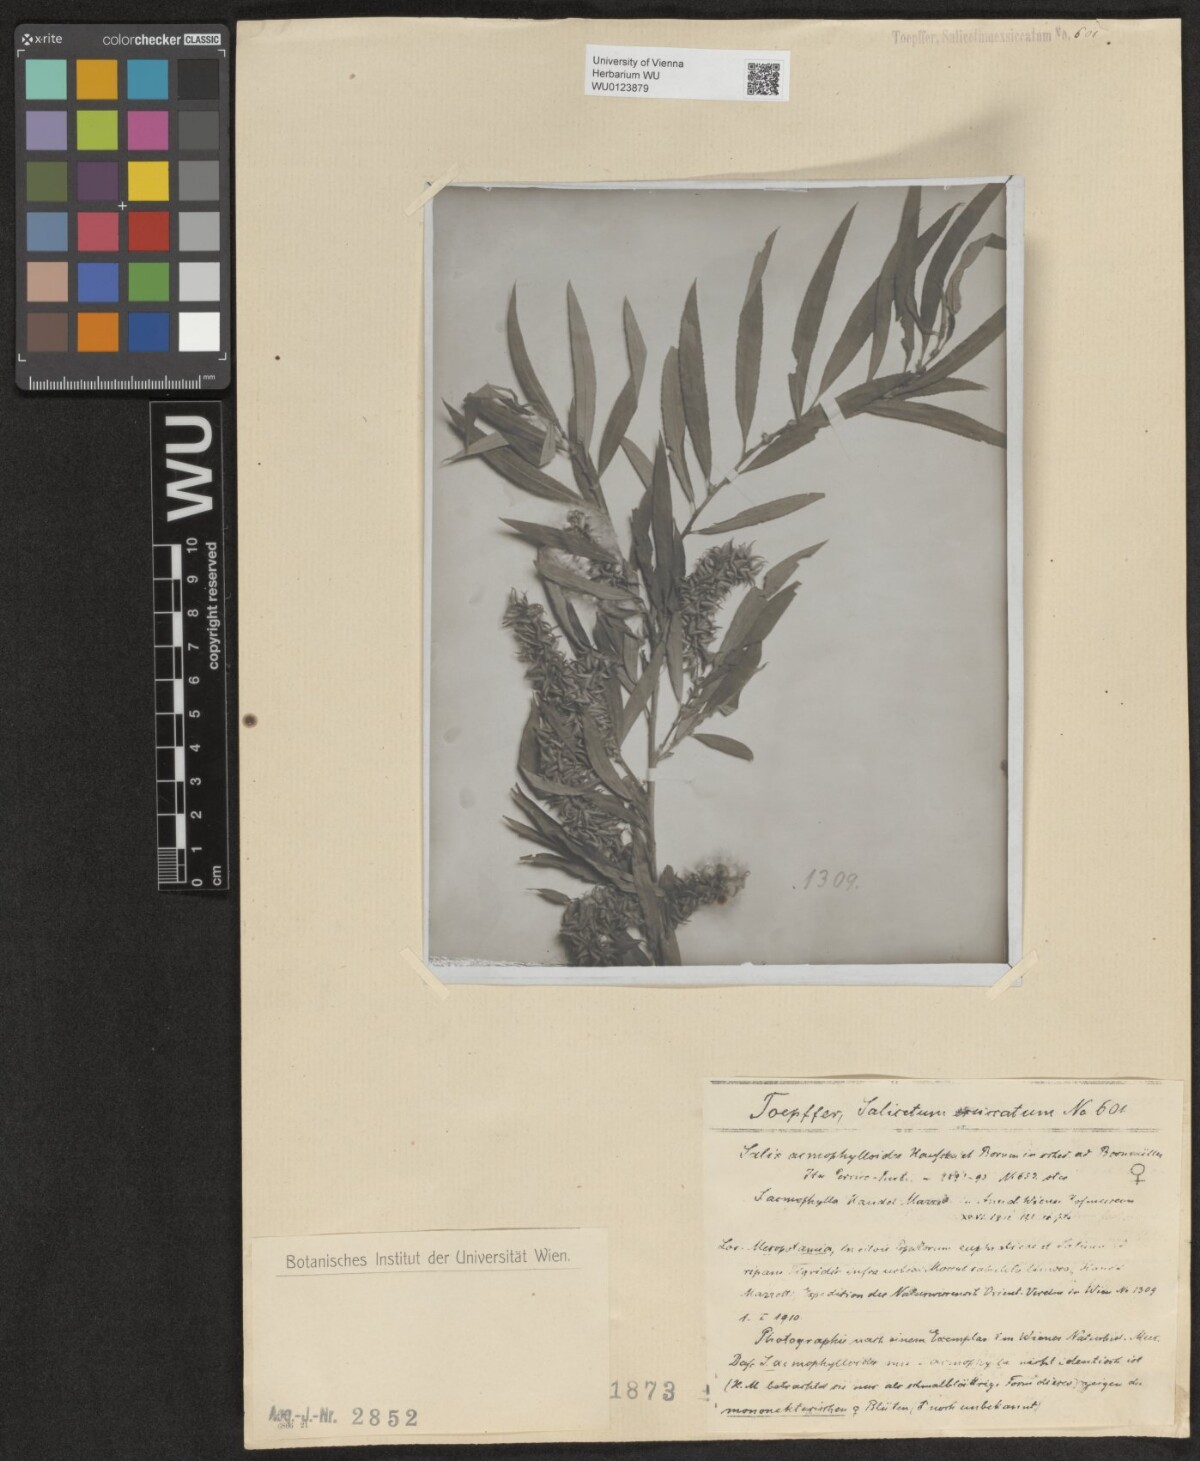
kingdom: Plantae
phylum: Tracheophyta
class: Magnoliopsida
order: Malpighiales
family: Salicaceae
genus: Salix
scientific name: Salix
